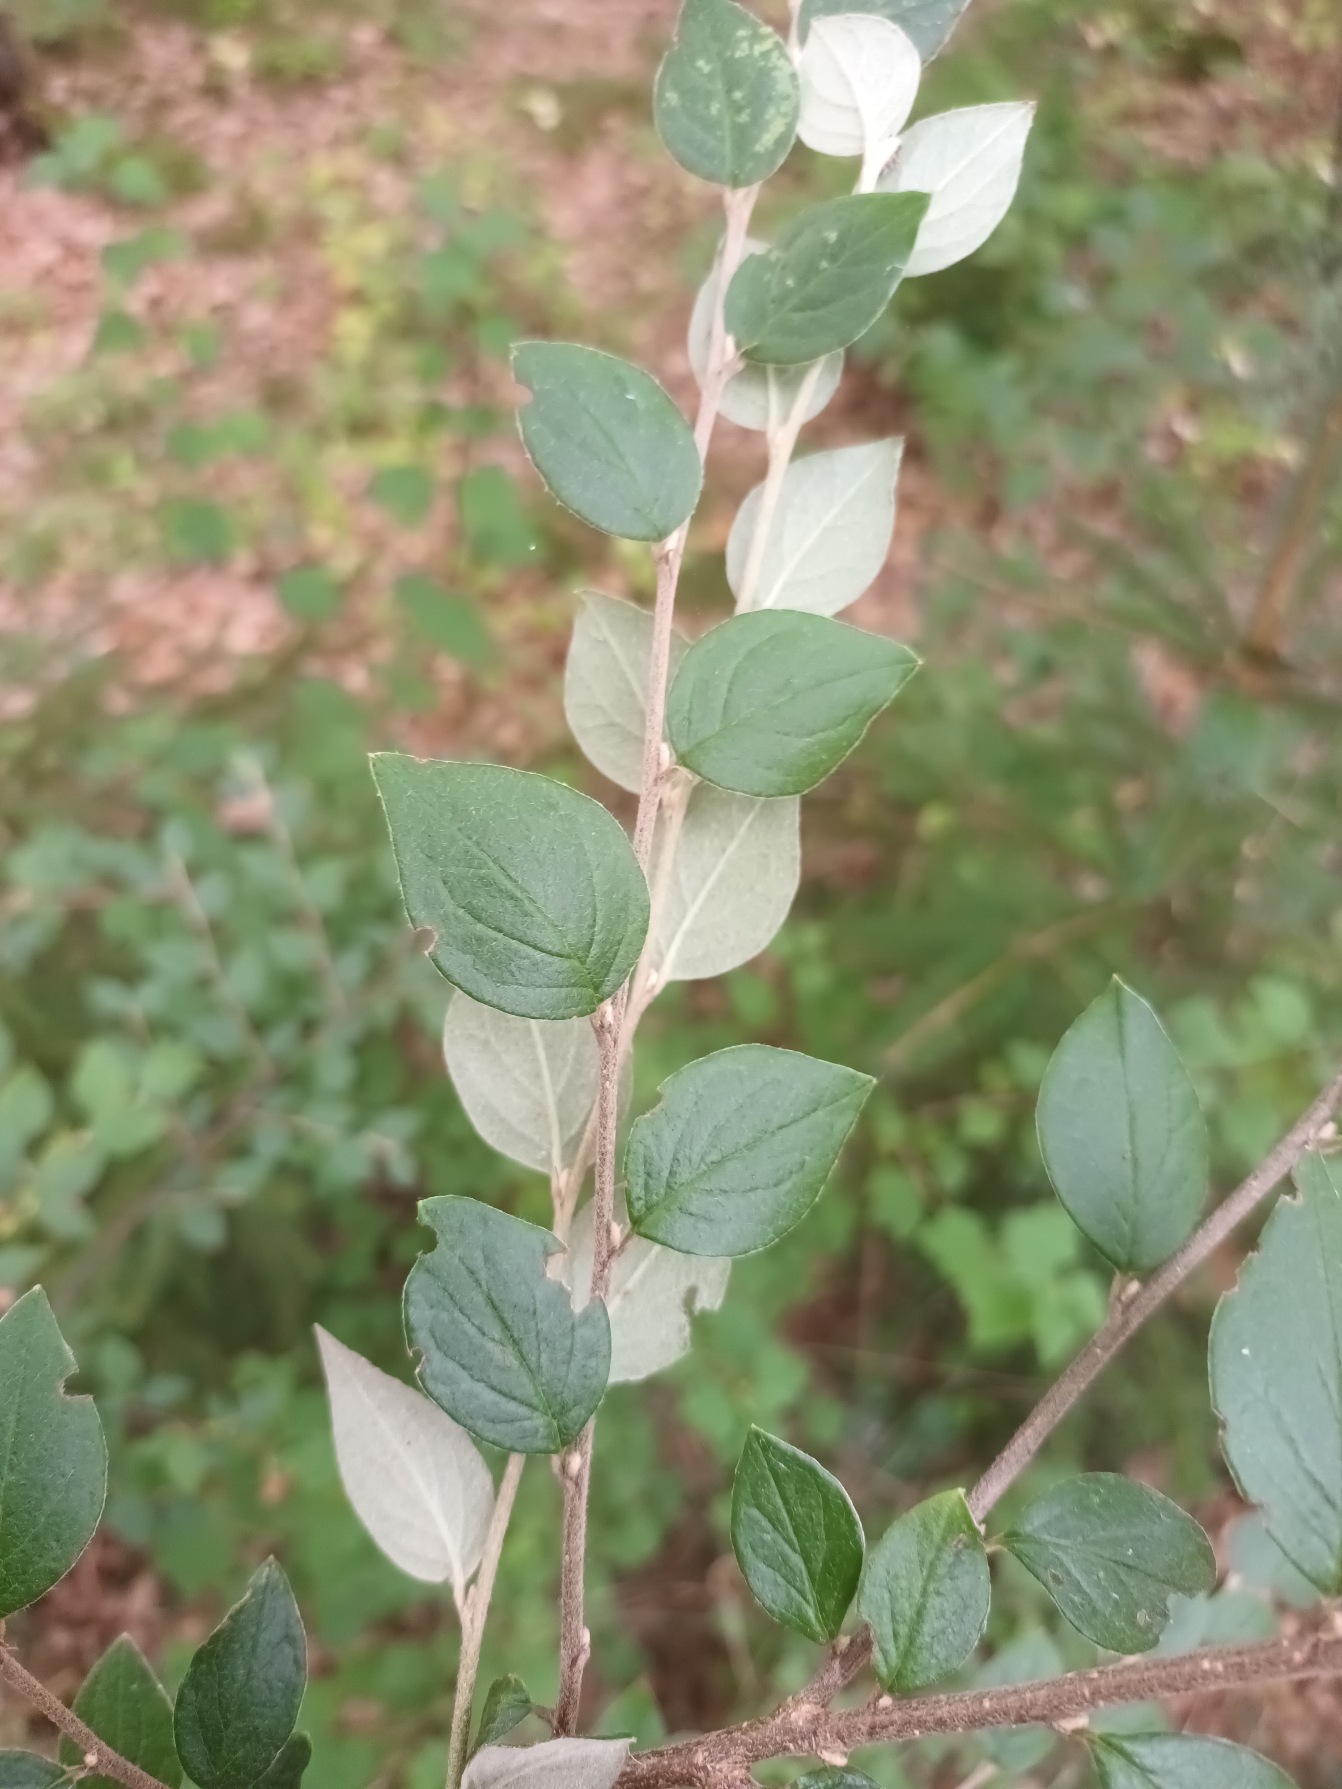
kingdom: Plantae
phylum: Tracheophyta
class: Magnoliopsida
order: Rosales
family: Rosaceae
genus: Cotoneaster
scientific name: Cotoneaster dielsianus
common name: Kinesisk dværgmispel
